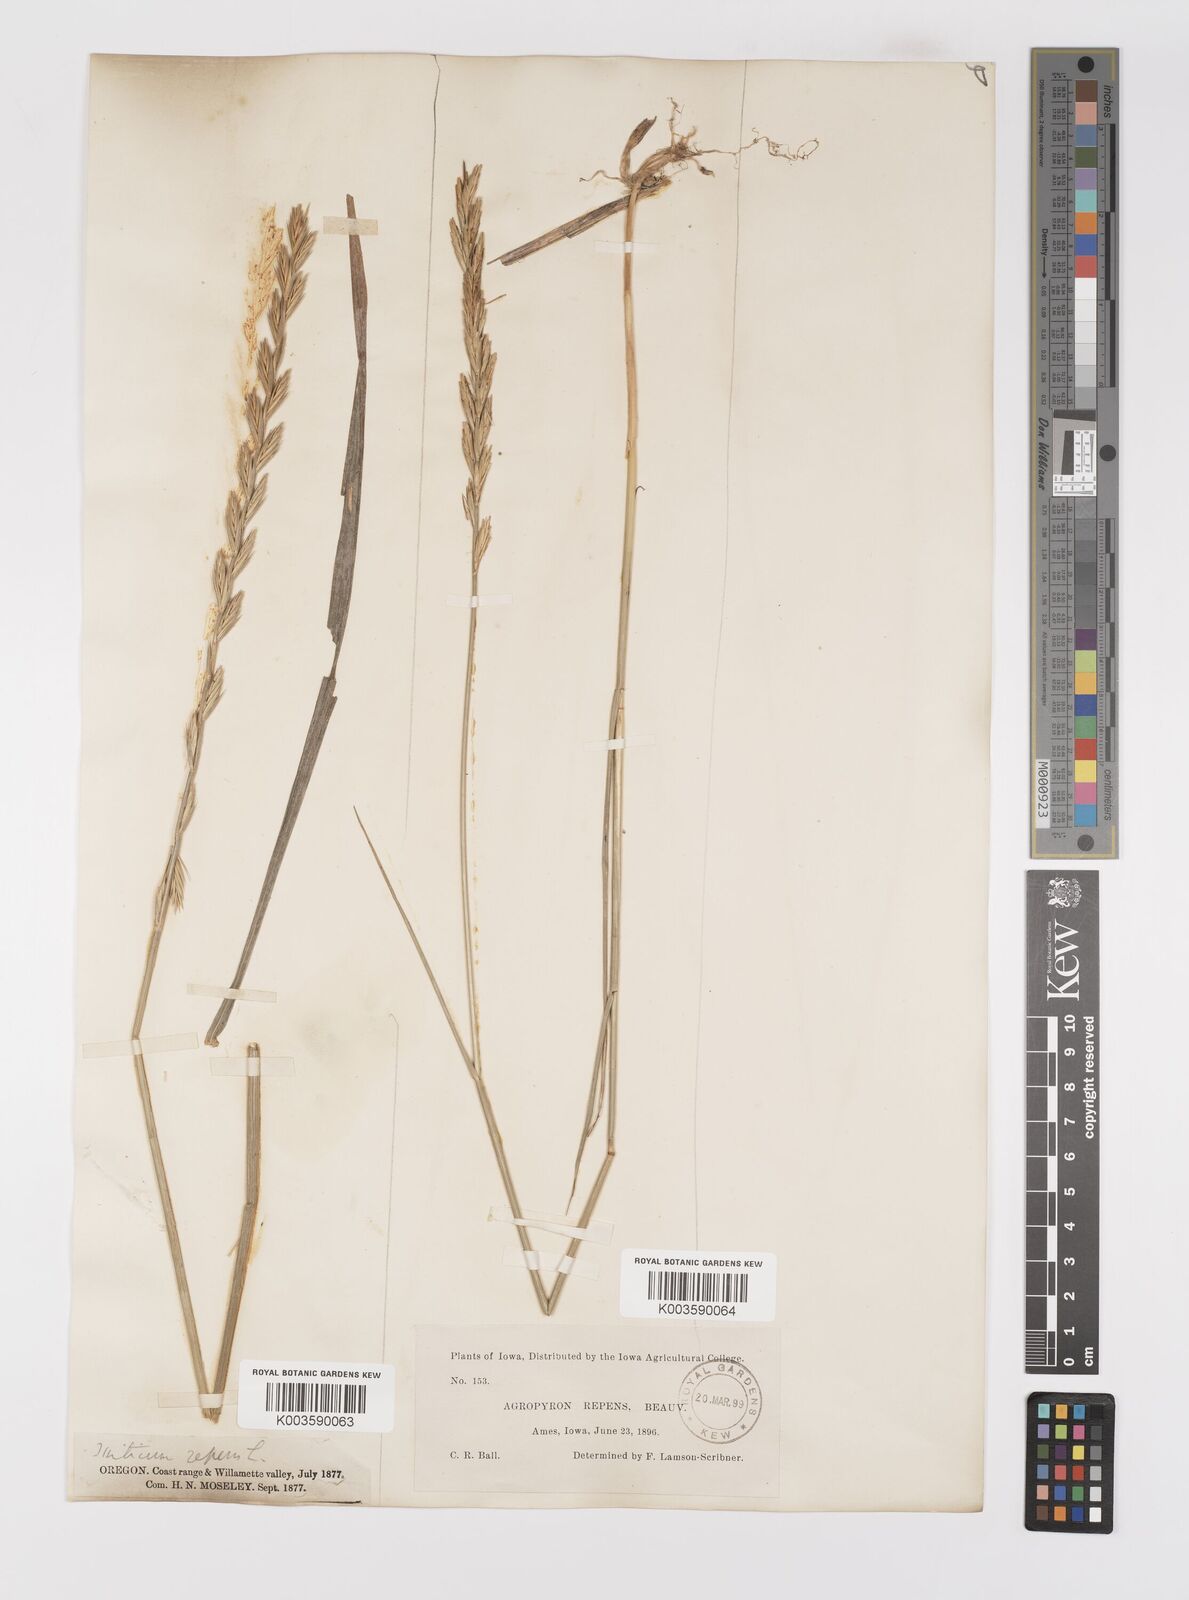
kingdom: Plantae
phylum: Tracheophyta
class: Liliopsida
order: Poales
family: Poaceae
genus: Elymus
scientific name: Elymus repens
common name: Quackgrass
